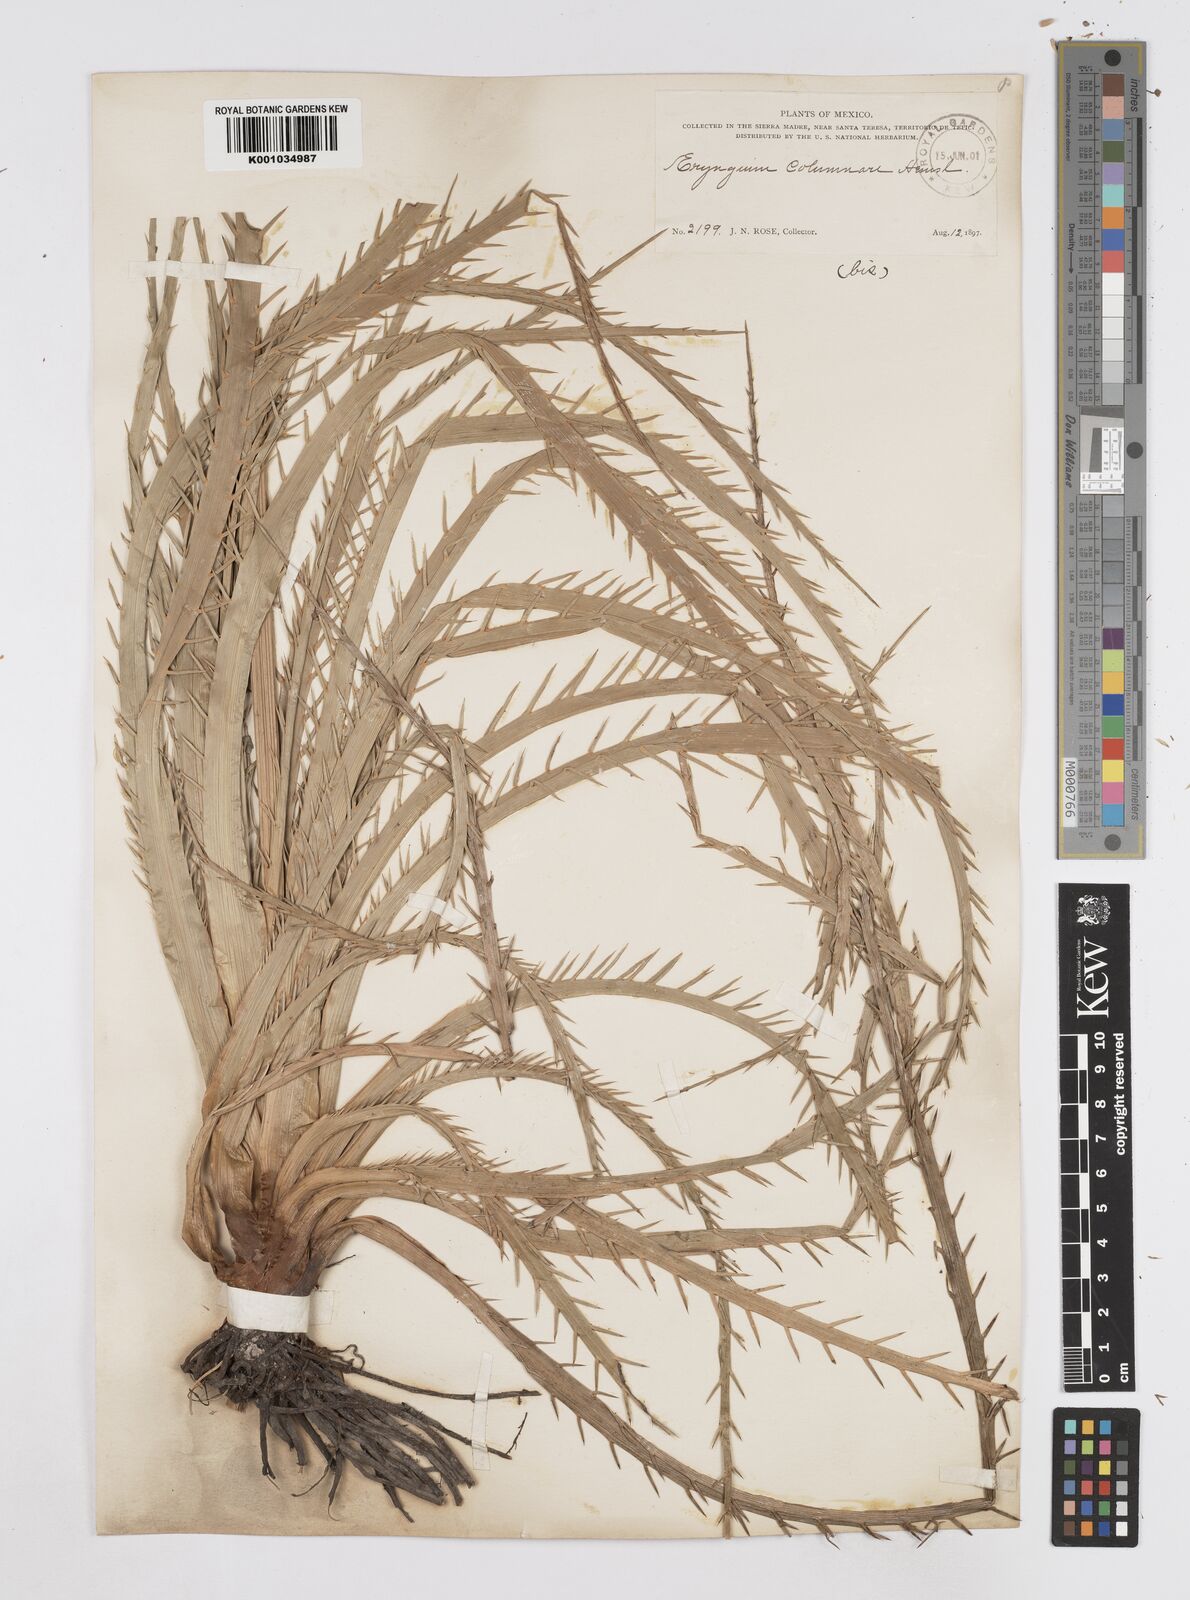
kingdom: Plantae
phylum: Tracheophyta
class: Magnoliopsida
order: Apiales
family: Apiaceae
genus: Eryngium
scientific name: Eryngium columnare
